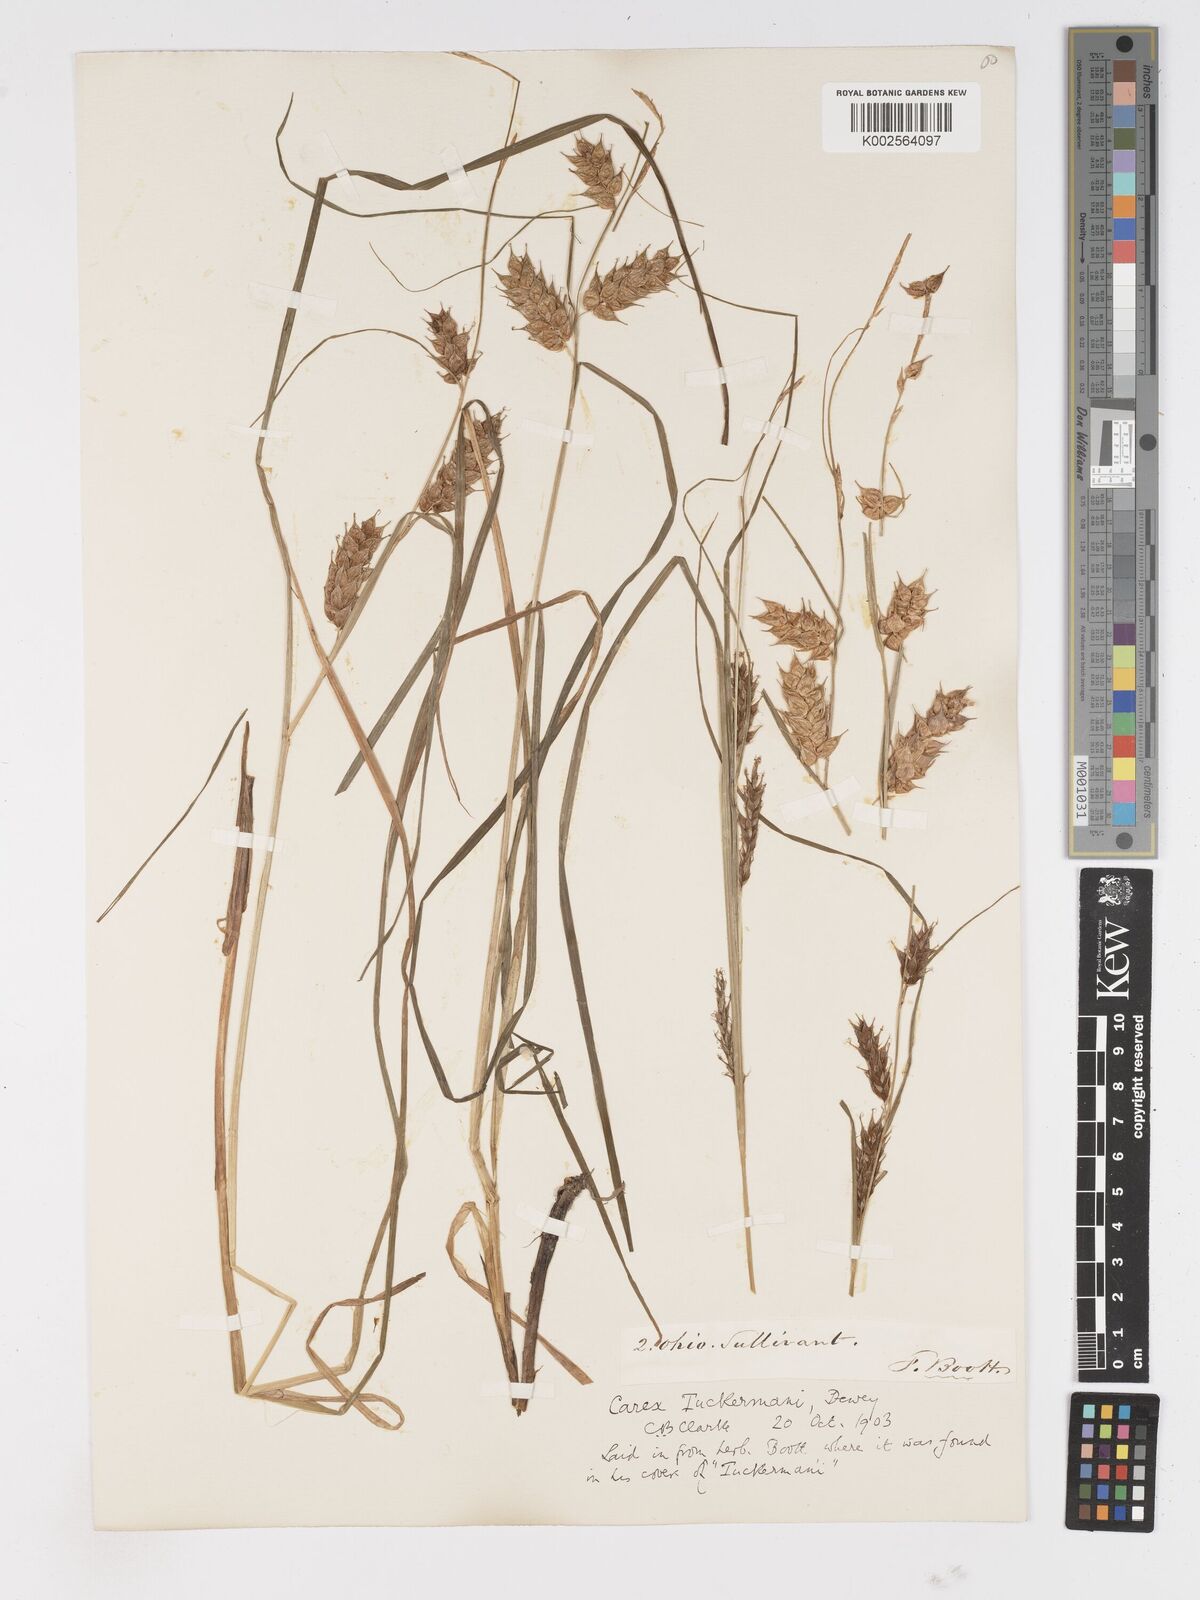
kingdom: Plantae
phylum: Tracheophyta
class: Liliopsida
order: Poales
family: Cyperaceae
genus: Carex
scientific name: Carex tuckermanii
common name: Tuckerman's sedge
